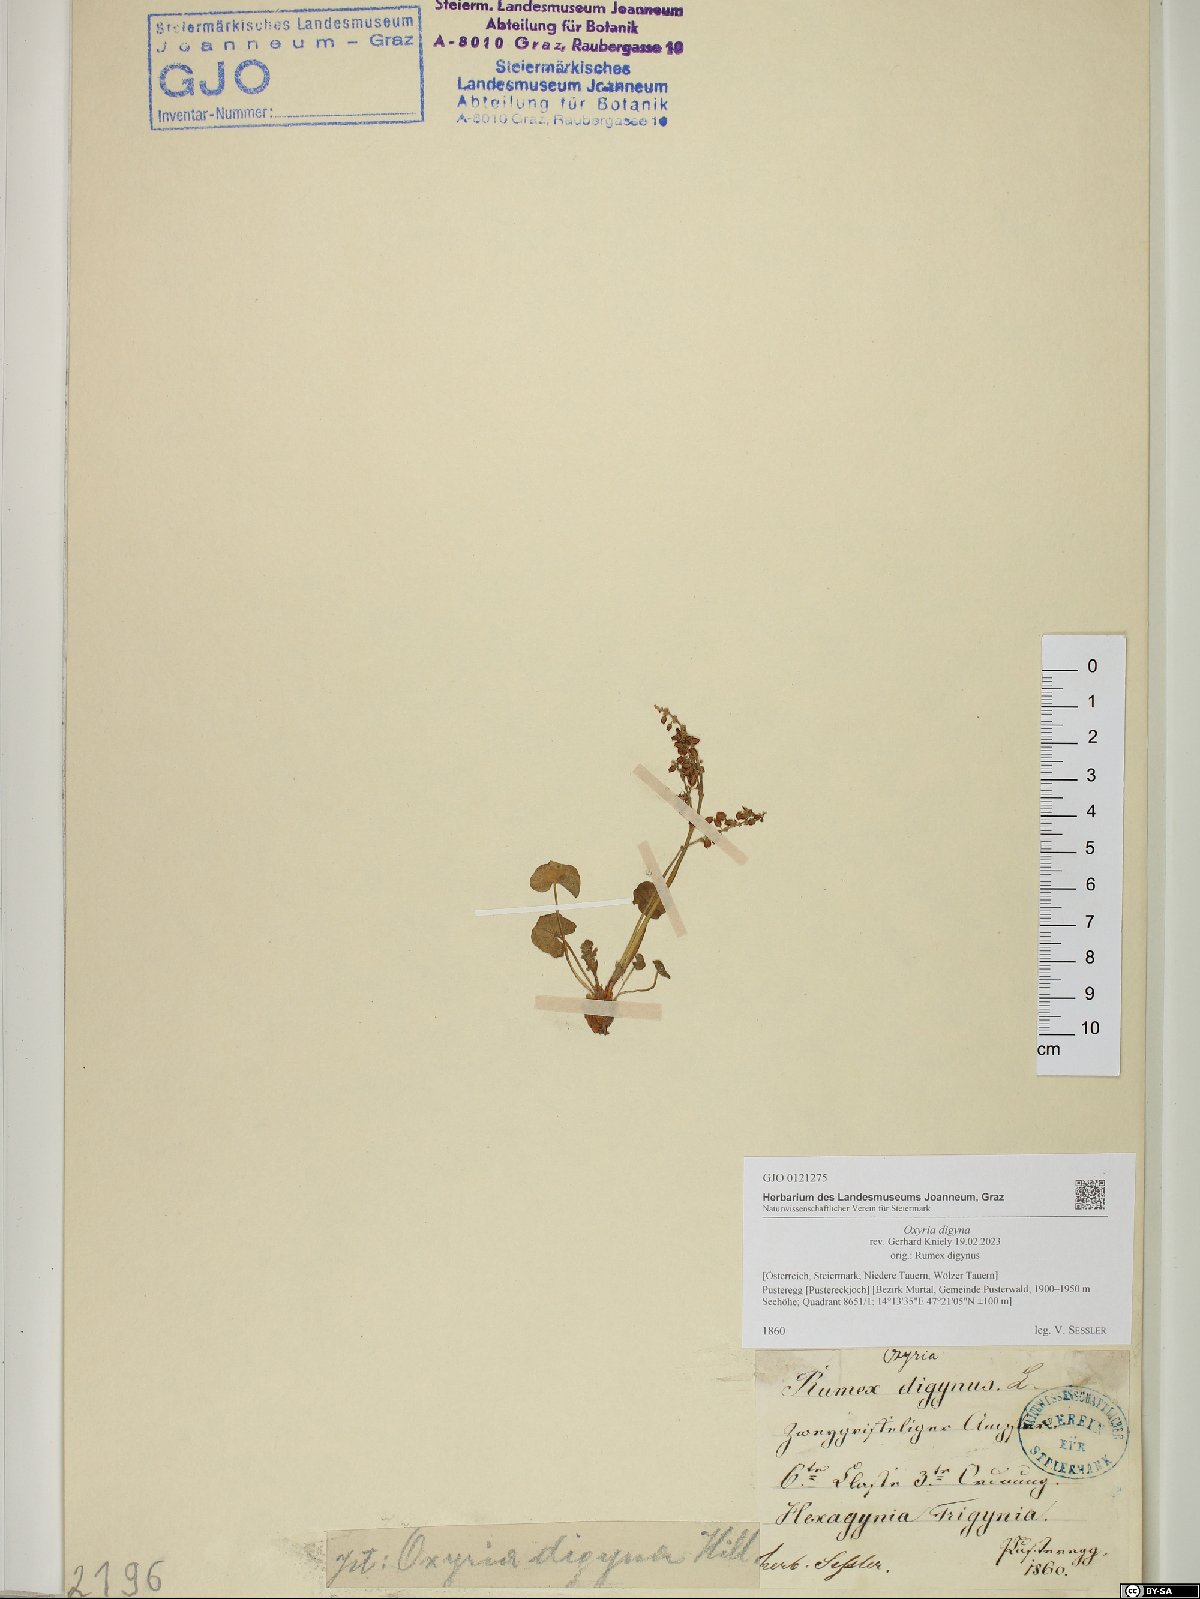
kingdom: Plantae
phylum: Tracheophyta
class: Magnoliopsida
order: Caryophyllales
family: Polygonaceae
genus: Oxyria
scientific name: Oxyria digyna
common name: Alpine mountain-sorrel
